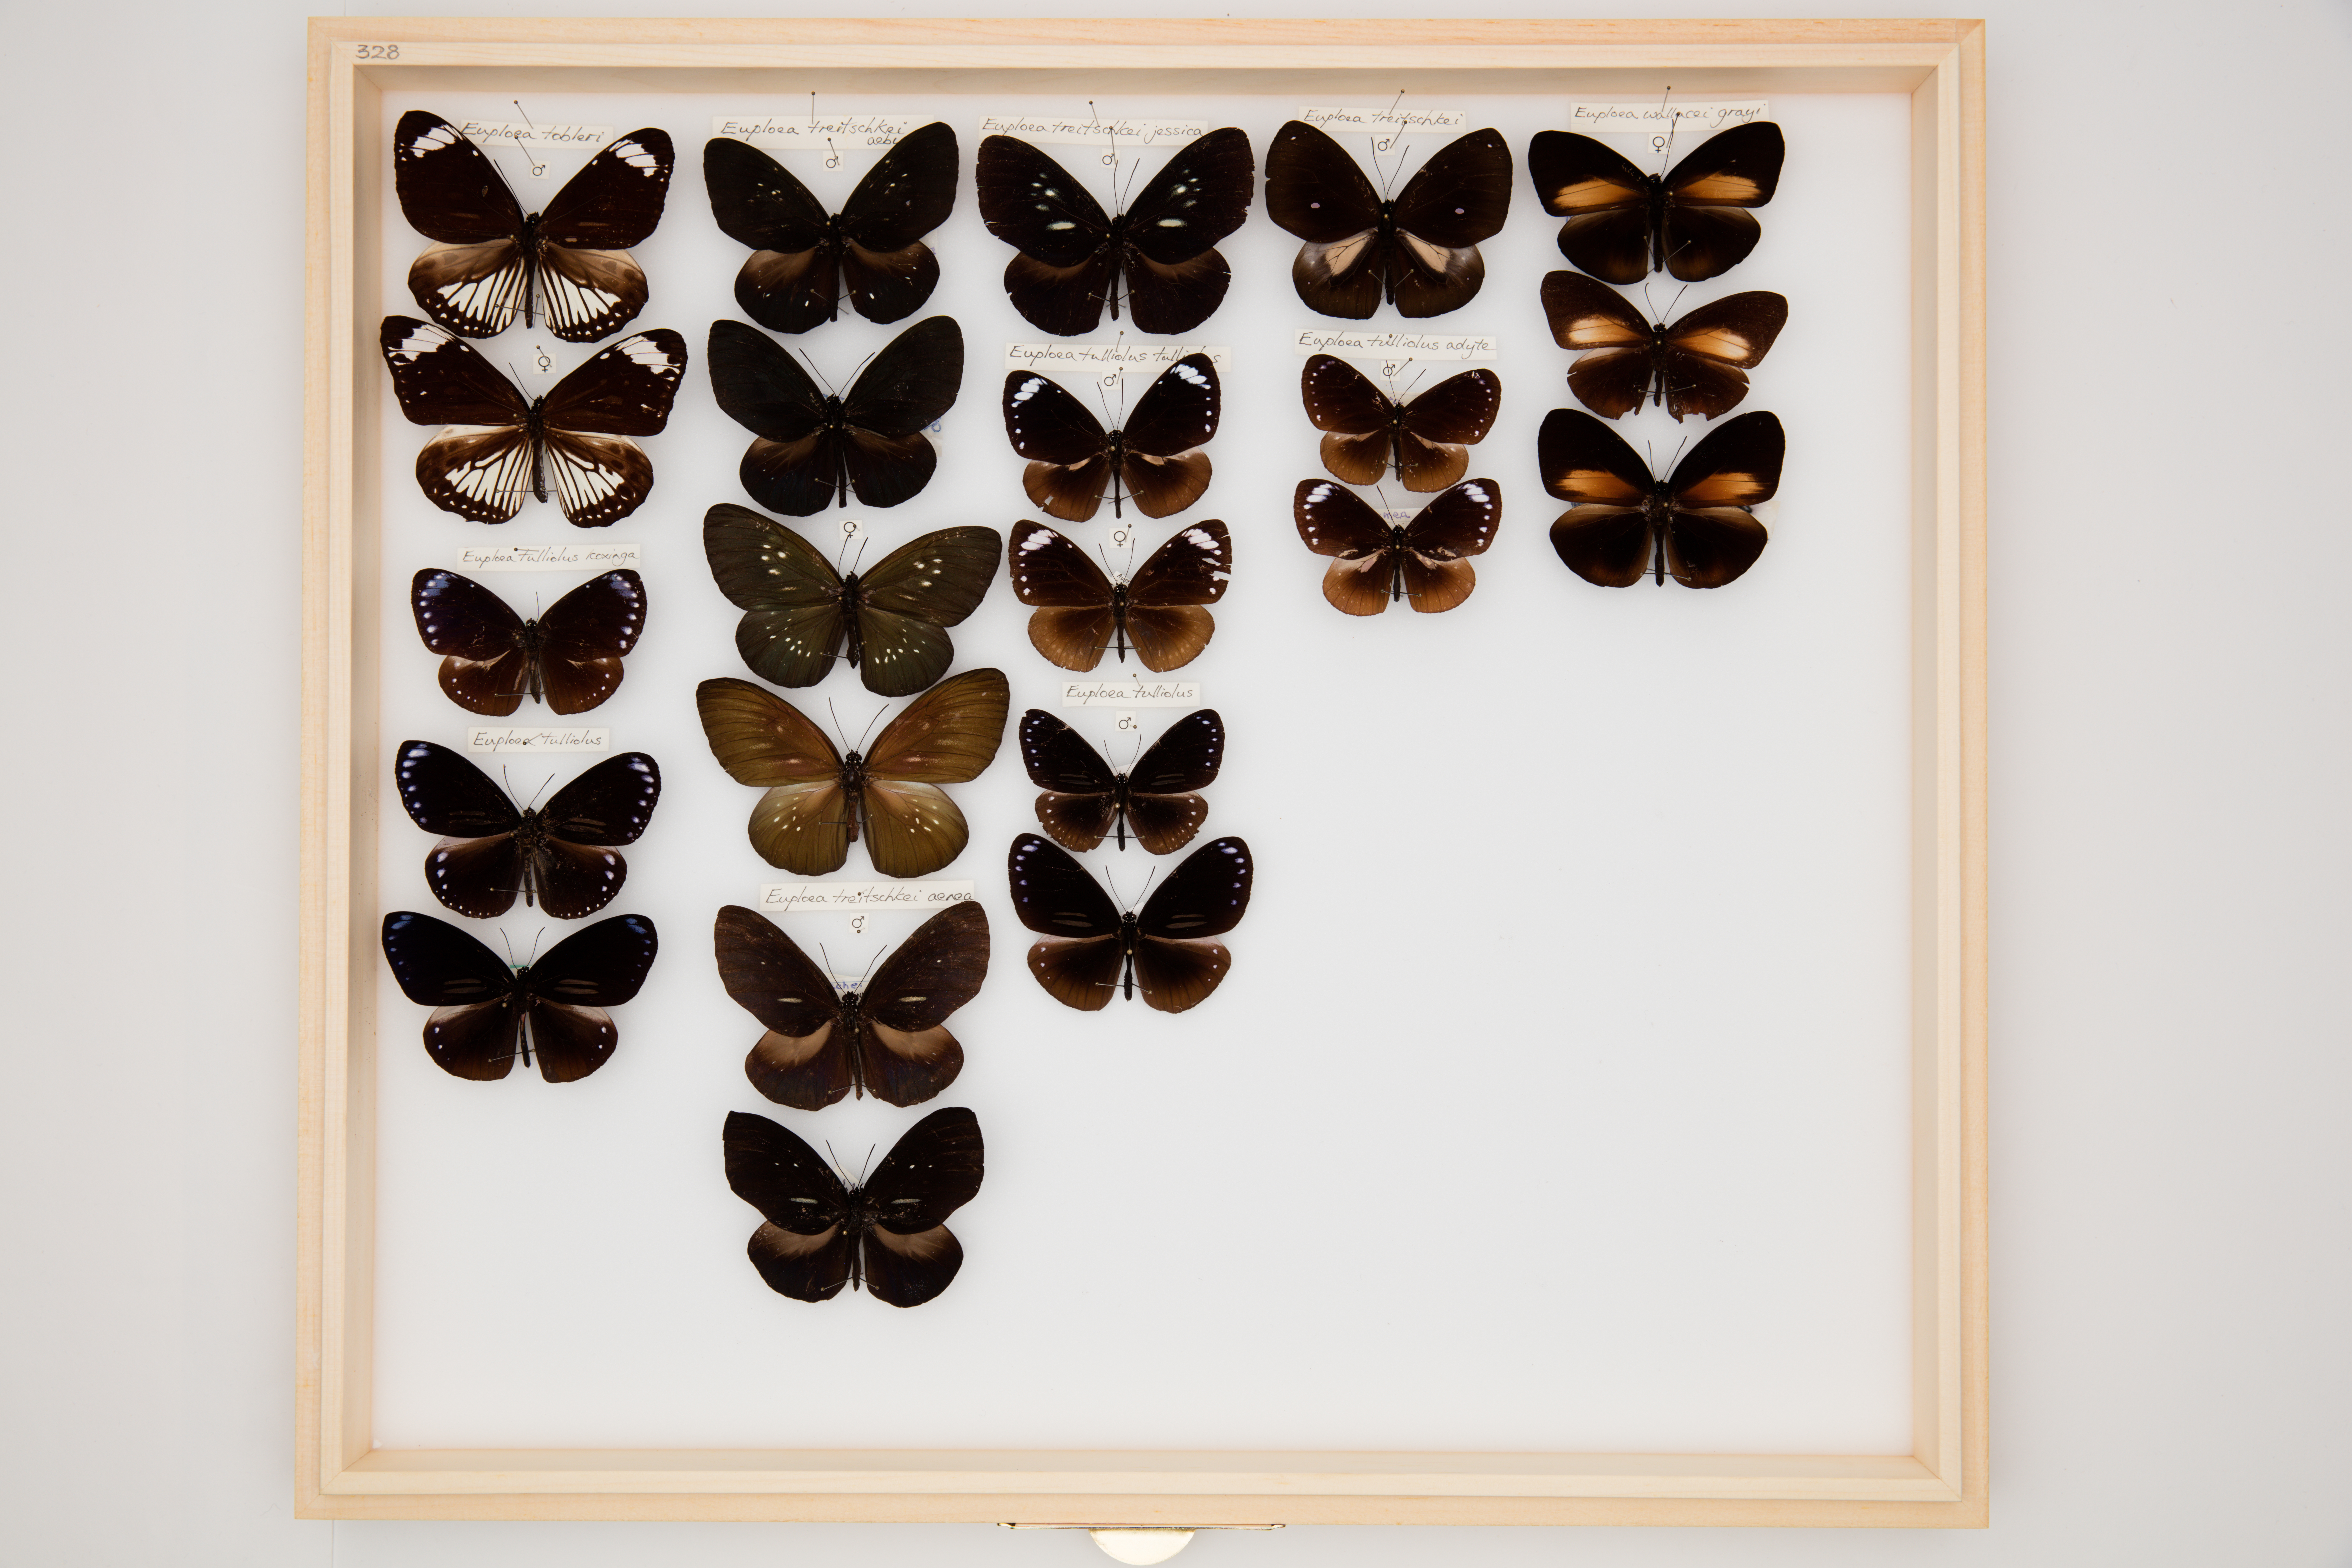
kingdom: Animalia
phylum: Arthropoda
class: Insecta
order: Lepidoptera
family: Nymphalidae
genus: Euploea
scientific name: Euploea treitschkei
